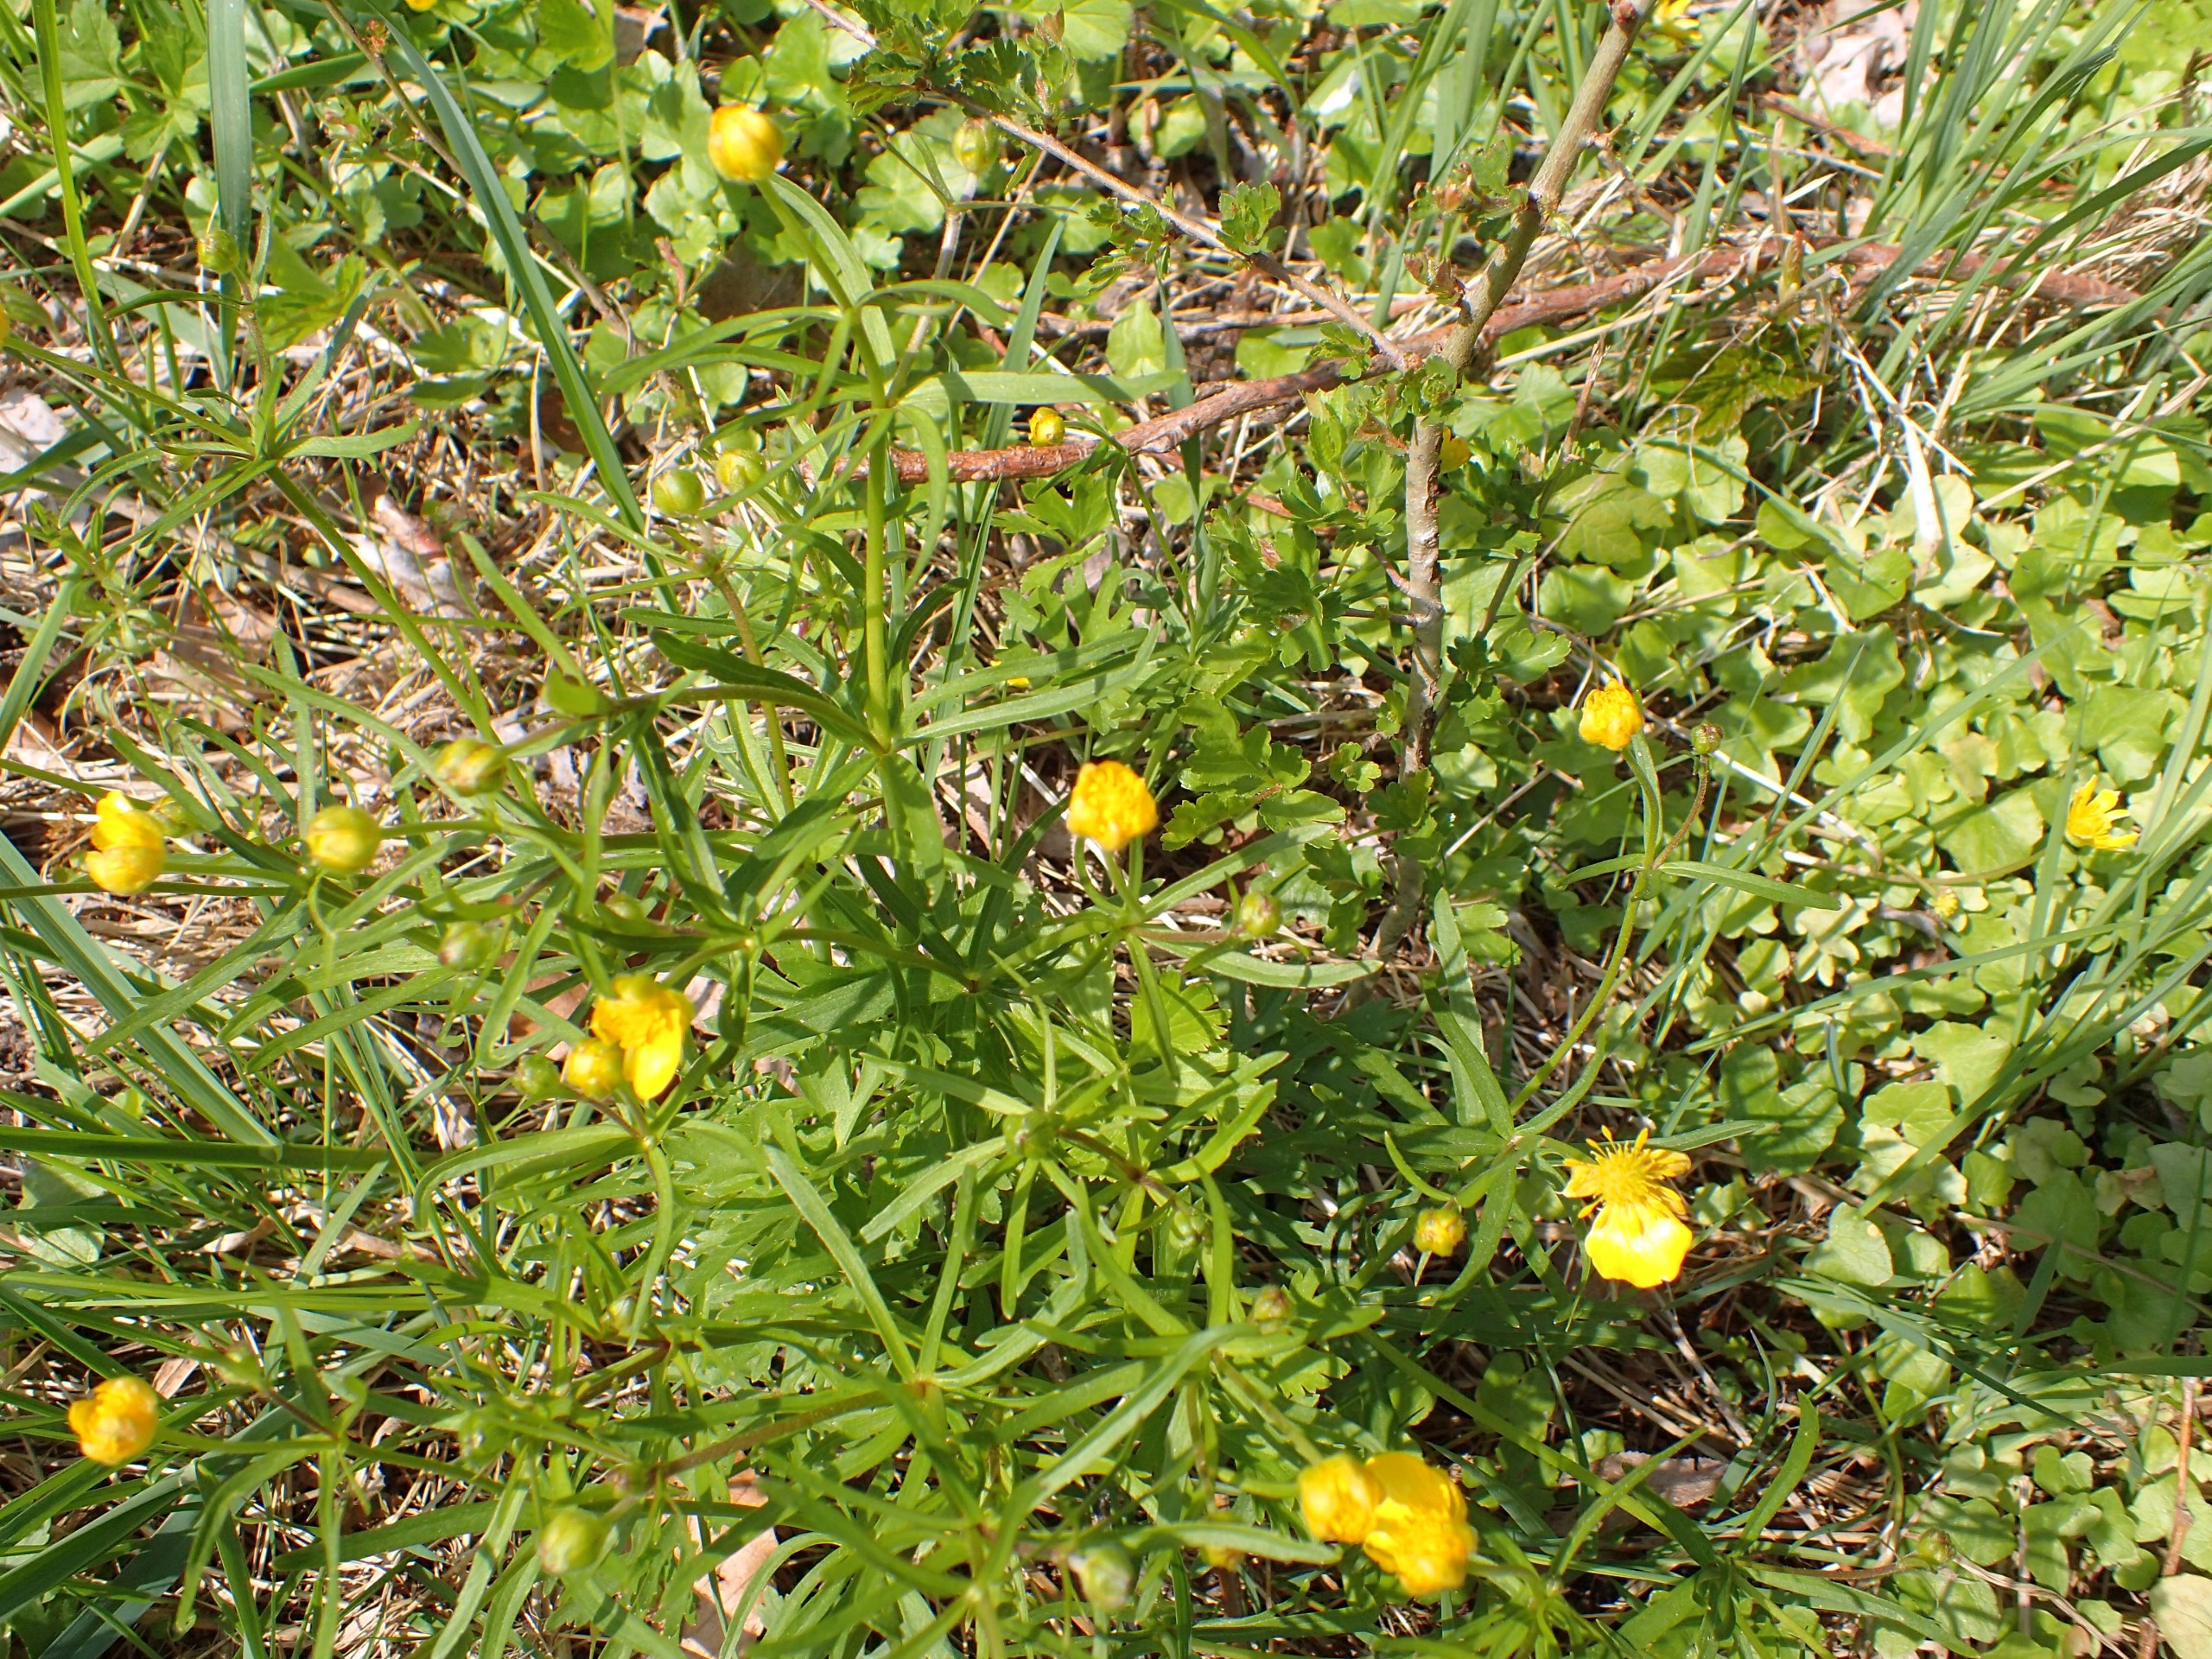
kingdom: Plantae
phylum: Tracheophyta
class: Magnoliopsida
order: Ranunculales
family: Ranunculaceae
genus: Ranunculus
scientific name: Ranunculus auricomus
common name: Nyrebladet ranunkel
